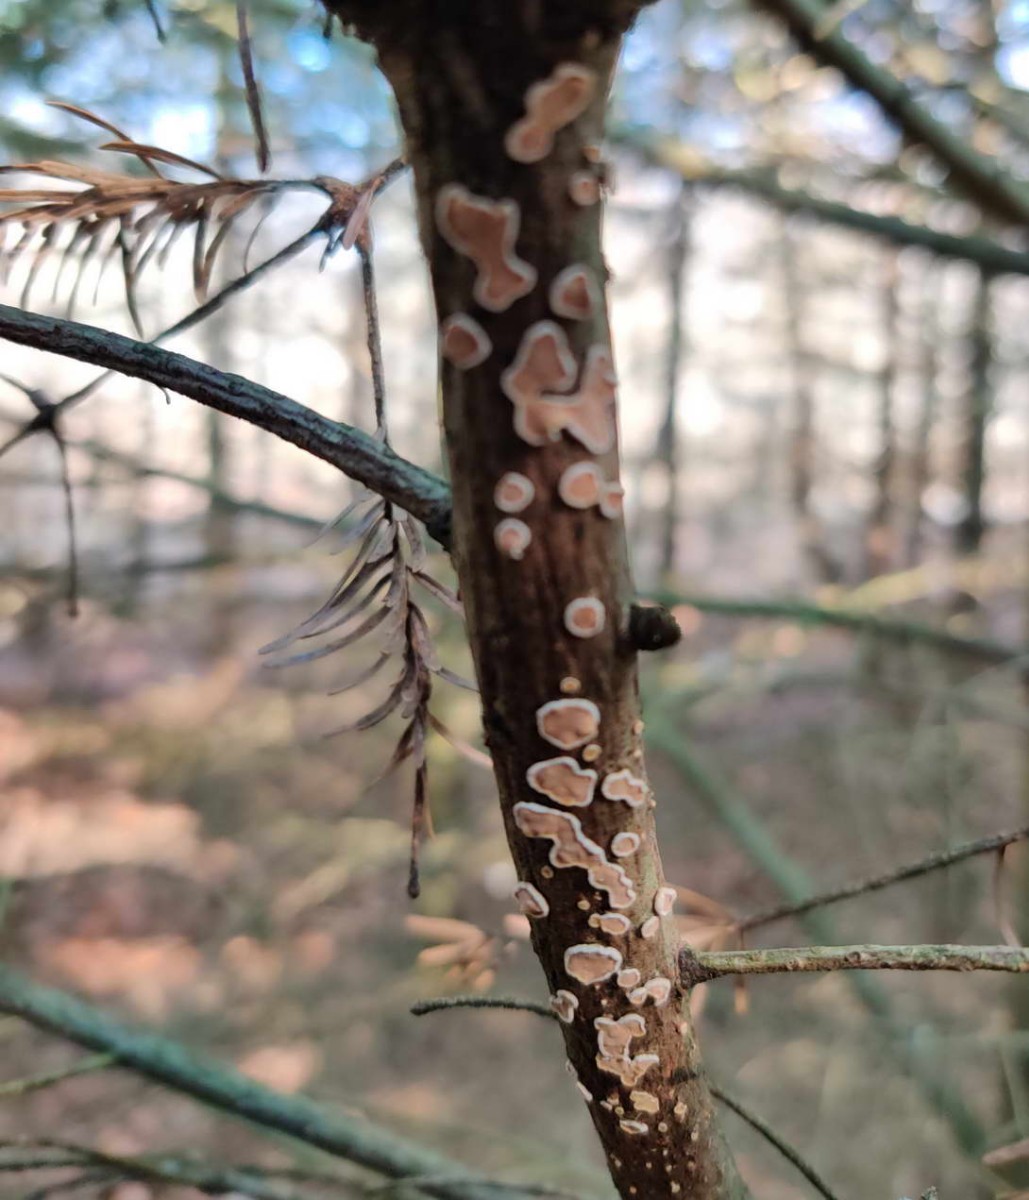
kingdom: Fungi
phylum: Basidiomycota
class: Agaricomycetes
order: Russulales
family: Stereaceae
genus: Aleurodiscus
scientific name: Aleurodiscus amorphus
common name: orange skiveskorpe
